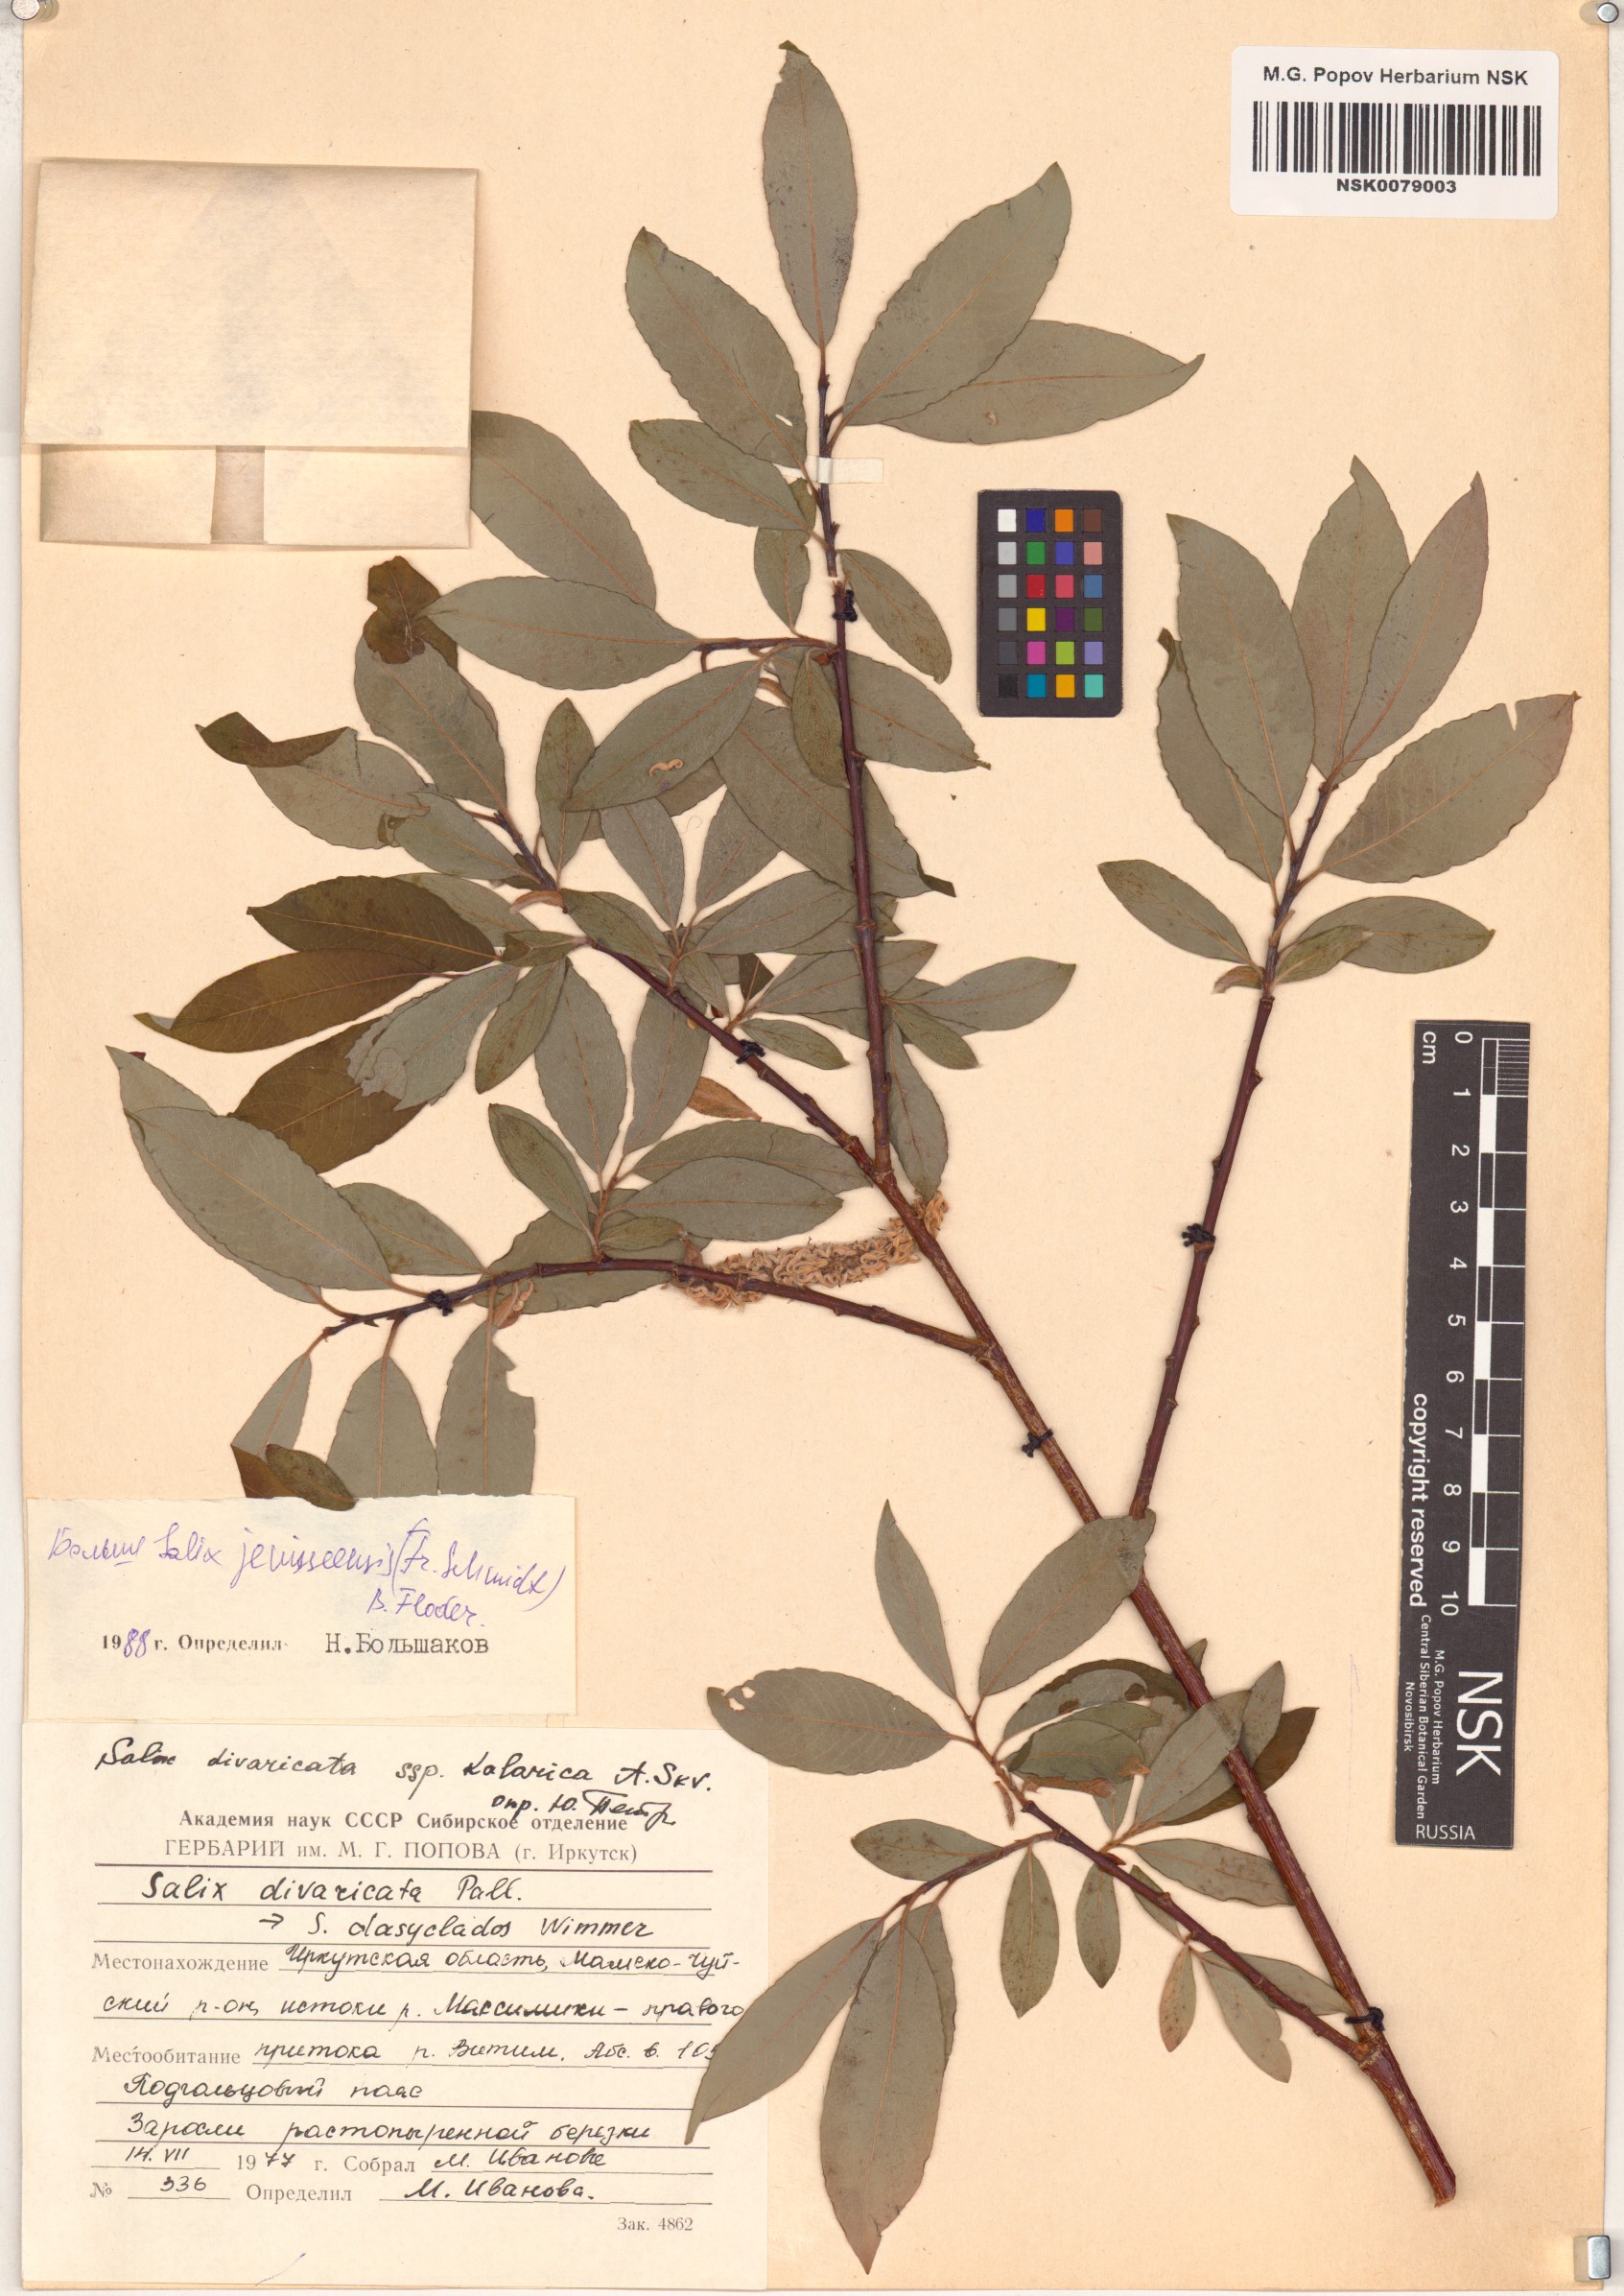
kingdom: Plantae
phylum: Tracheophyta
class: Magnoliopsida
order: Malpighiales
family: Salicaceae
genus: Salix
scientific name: Salix jenisseensis
